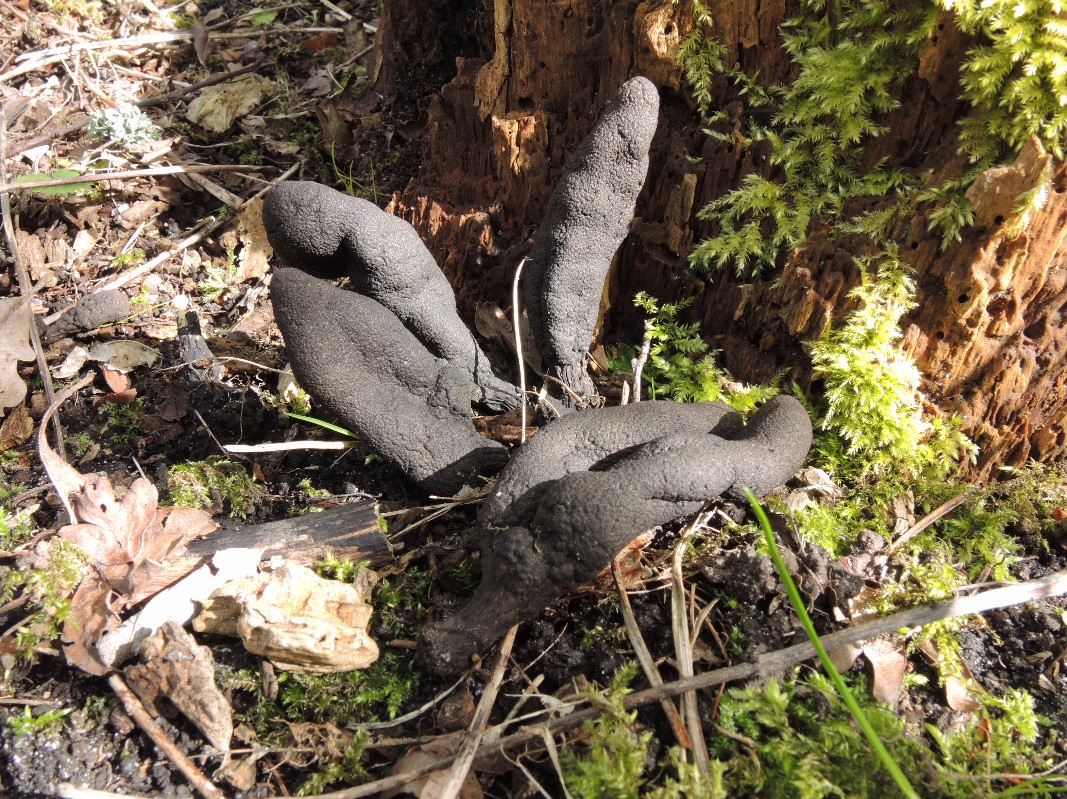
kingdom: Fungi
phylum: Ascomycota
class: Sordariomycetes
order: Xylariales
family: Xylariaceae
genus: Xylaria
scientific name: Xylaria polymorpha
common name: kølle-stødsvamp
